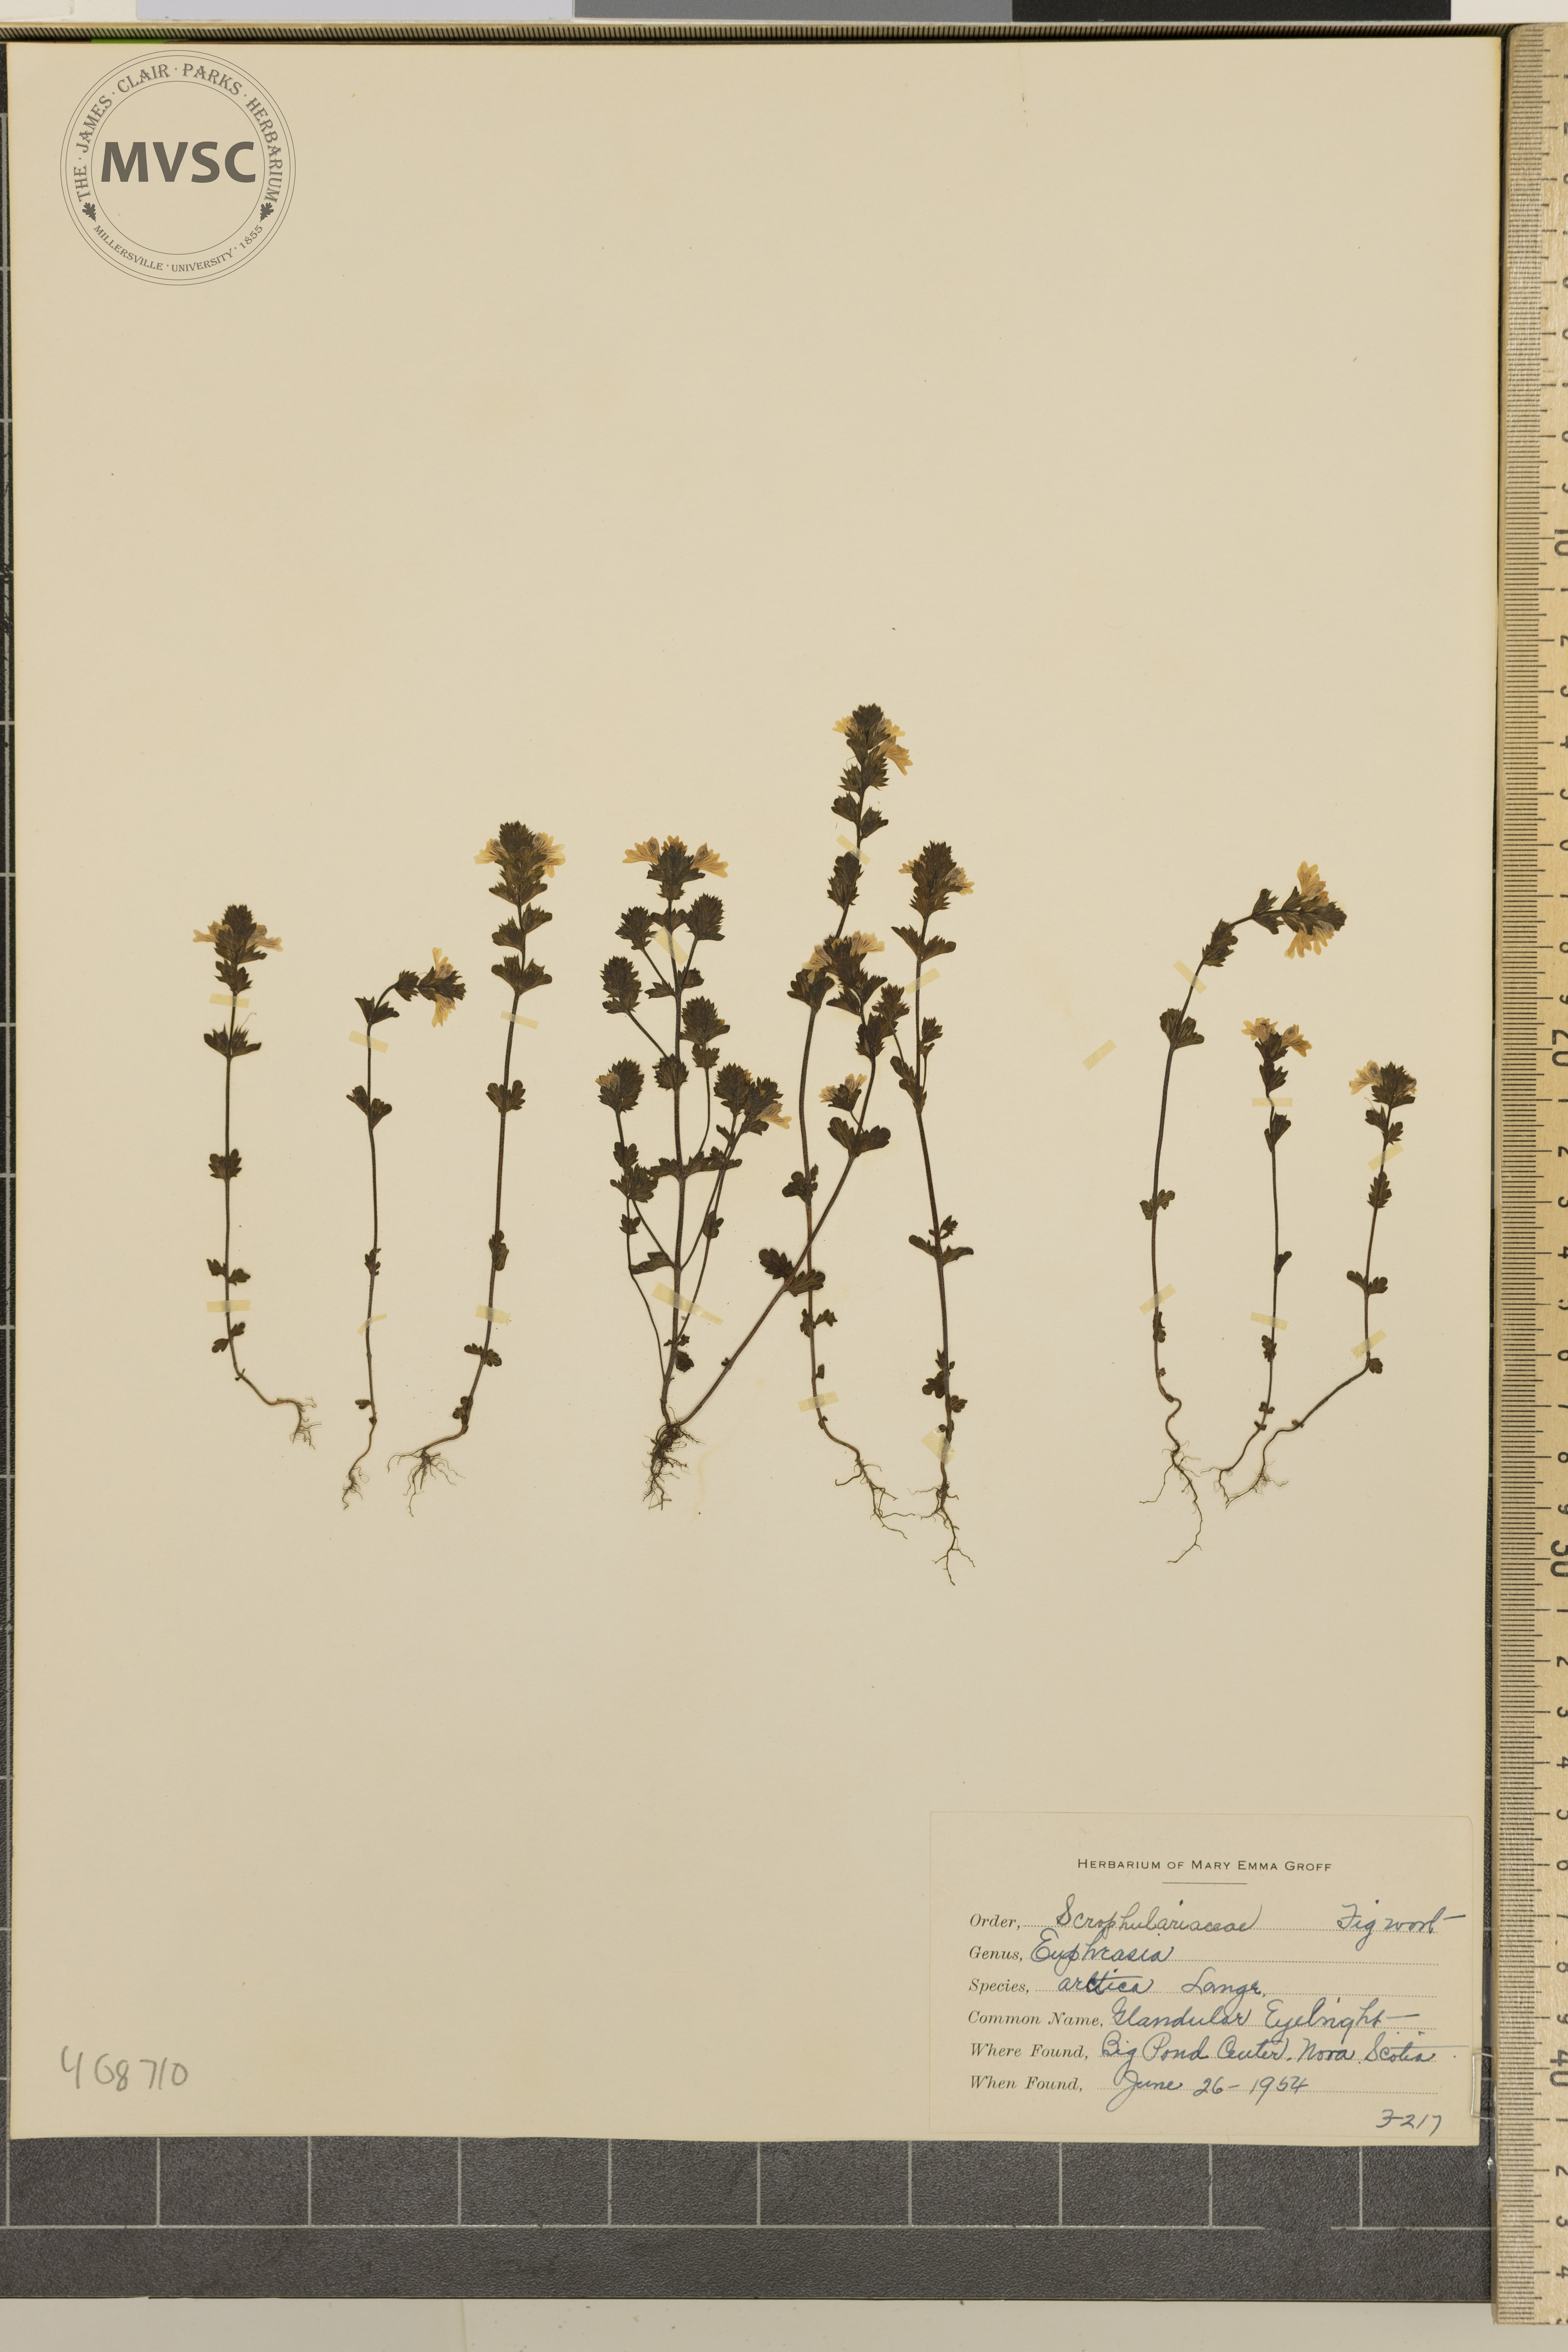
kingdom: Plantae
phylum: Tracheophyta
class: Magnoliopsida
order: Lamiales
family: Orobanchaceae
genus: Euphrasia
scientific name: Euphrasia arctica
